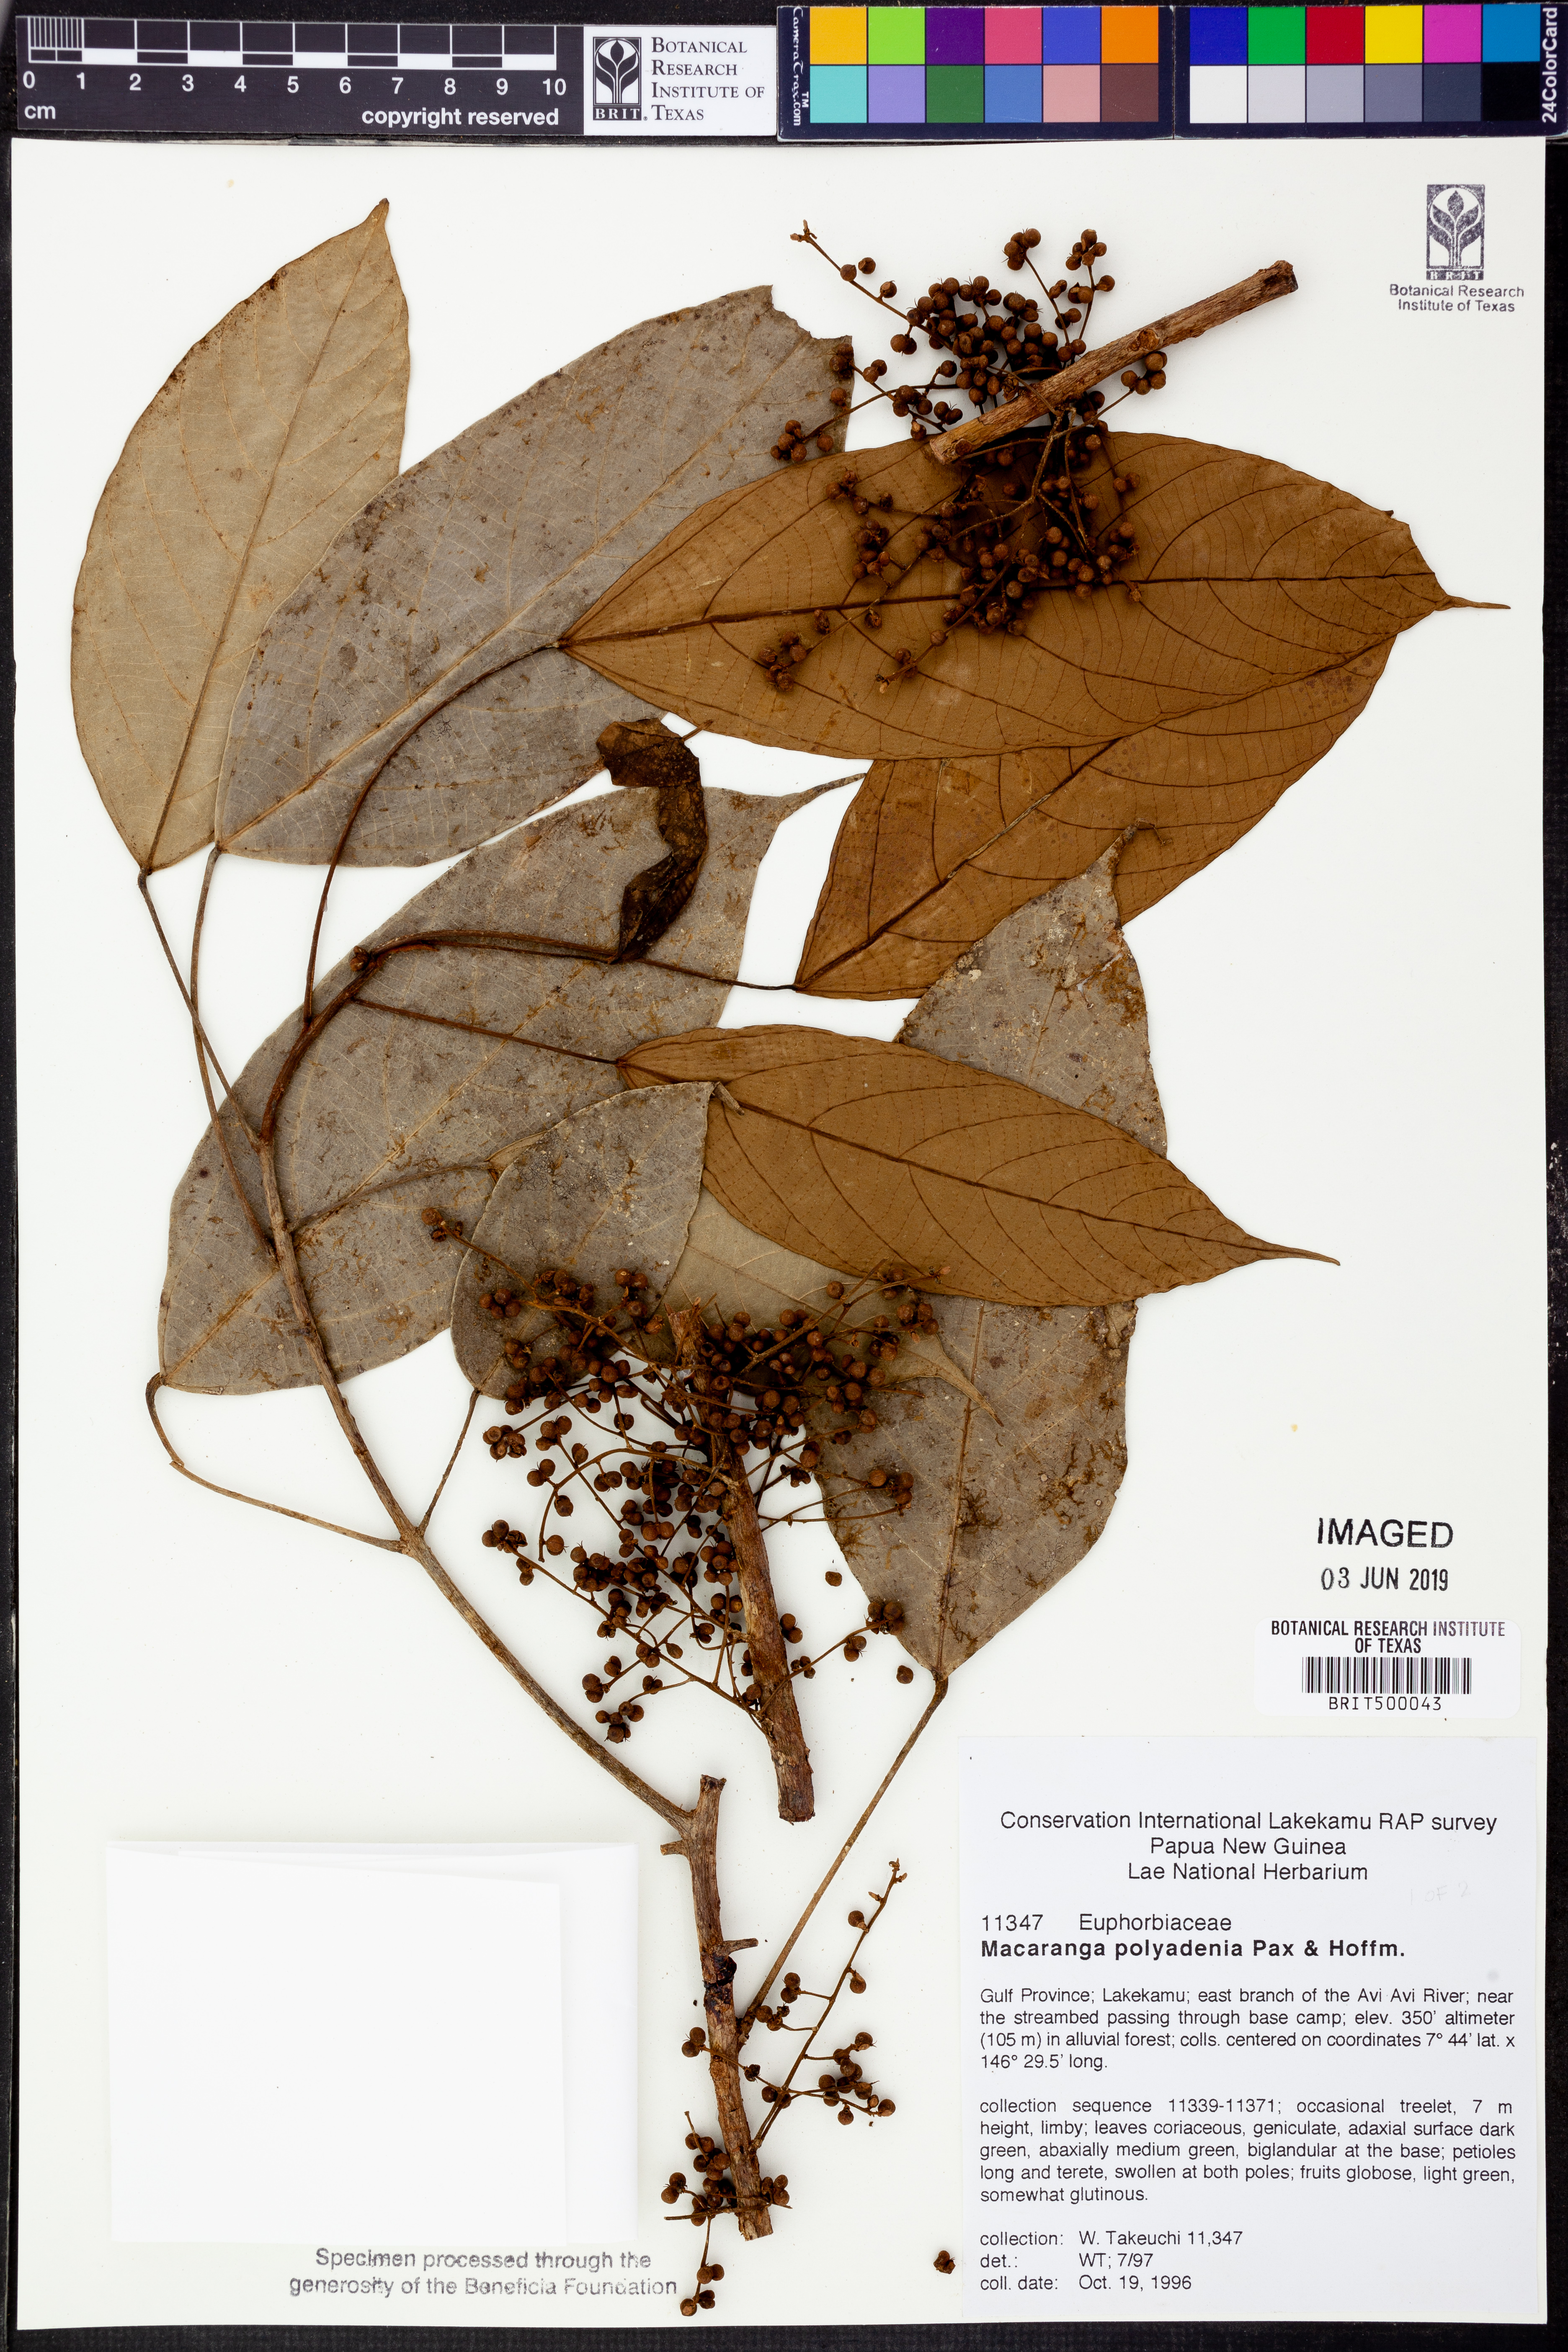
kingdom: Plantae
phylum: Tracheophyta
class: Magnoliopsida
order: Malpighiales
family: Euphorbiaceae
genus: Macaranga
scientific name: Macaranga polyadenia
